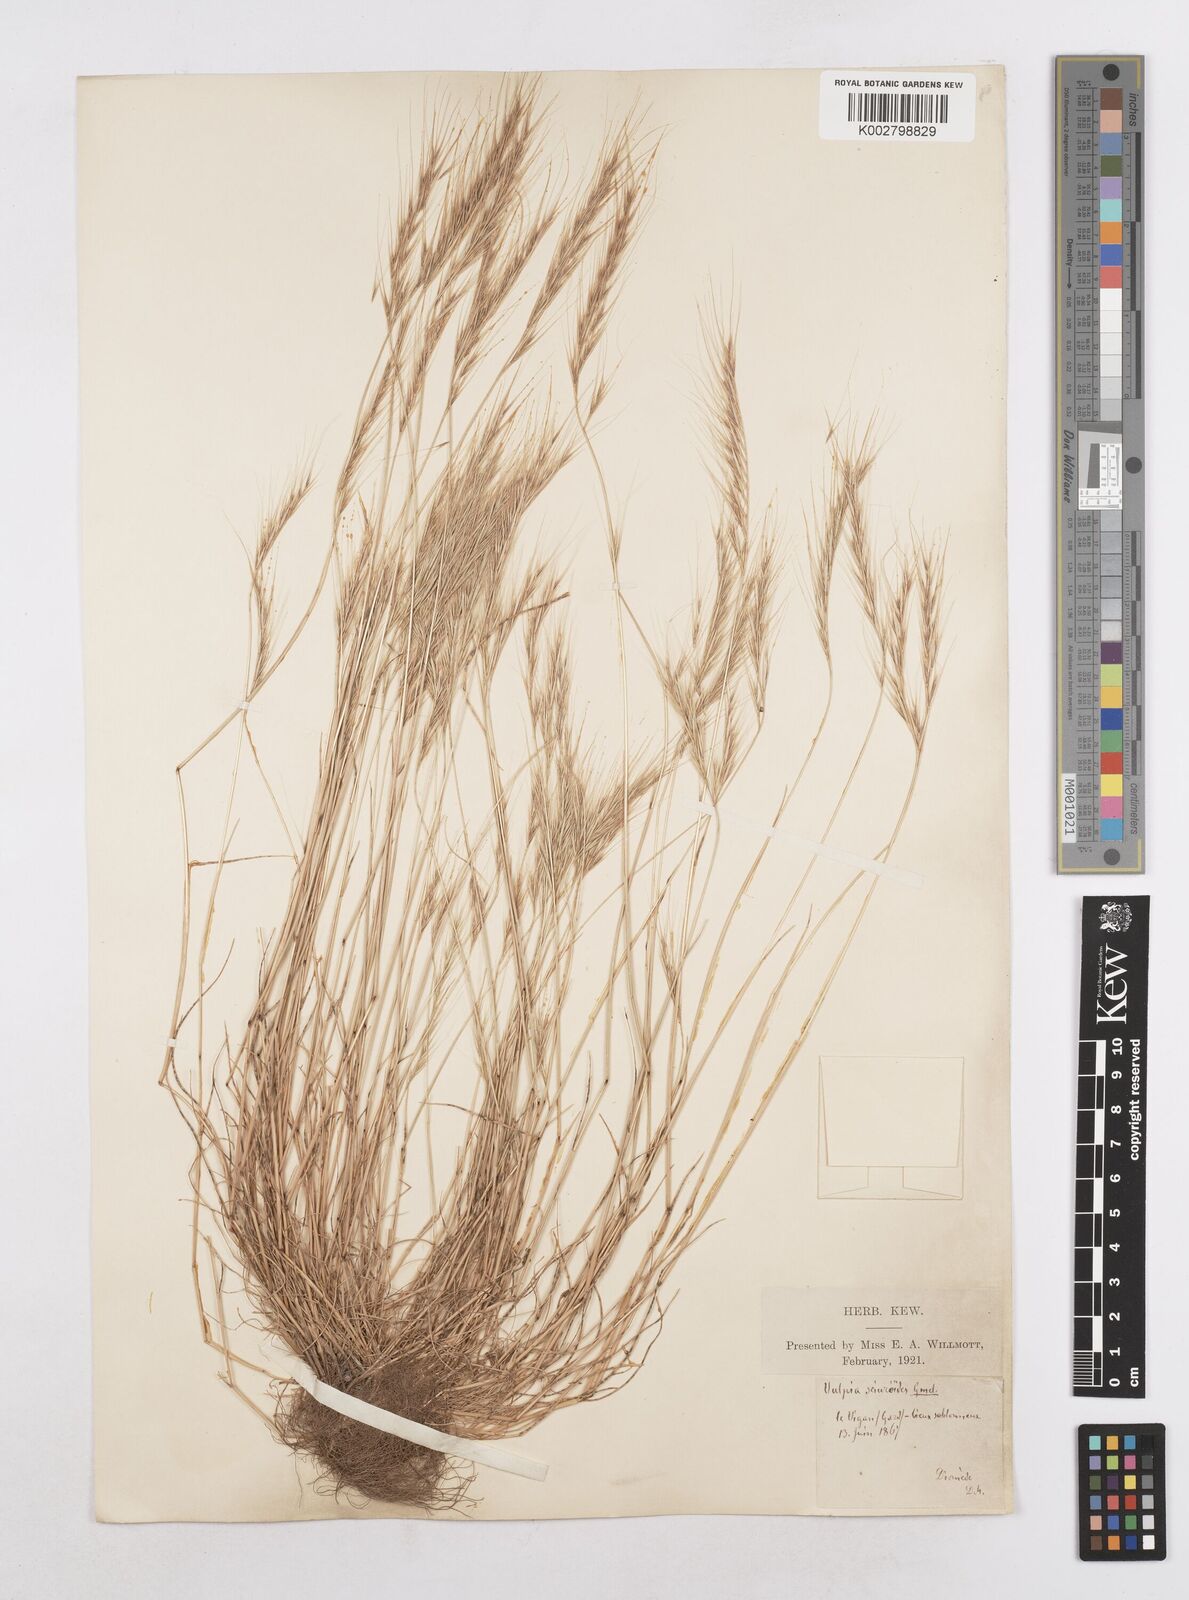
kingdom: Plantae
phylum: Tracheophyta
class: Liliopsida
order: Poales
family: Poaceae
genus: Festuca
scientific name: Festuca membranacea
